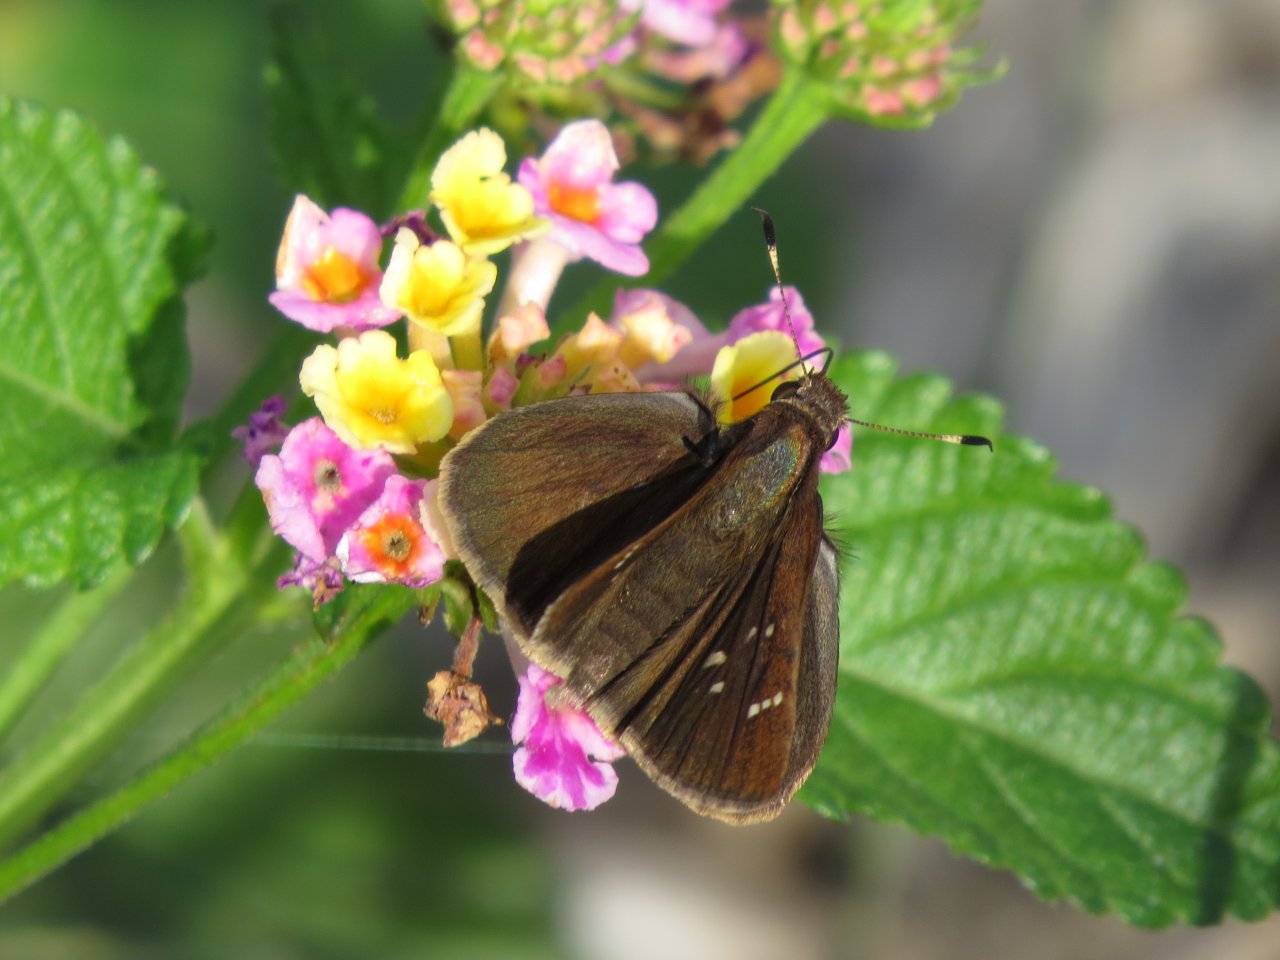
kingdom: Animalia
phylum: Arthropoda
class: Insecta
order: Lepidoptera
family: Hesperiidae
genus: Lerema
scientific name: Lerema accius
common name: Clouded Skipper
